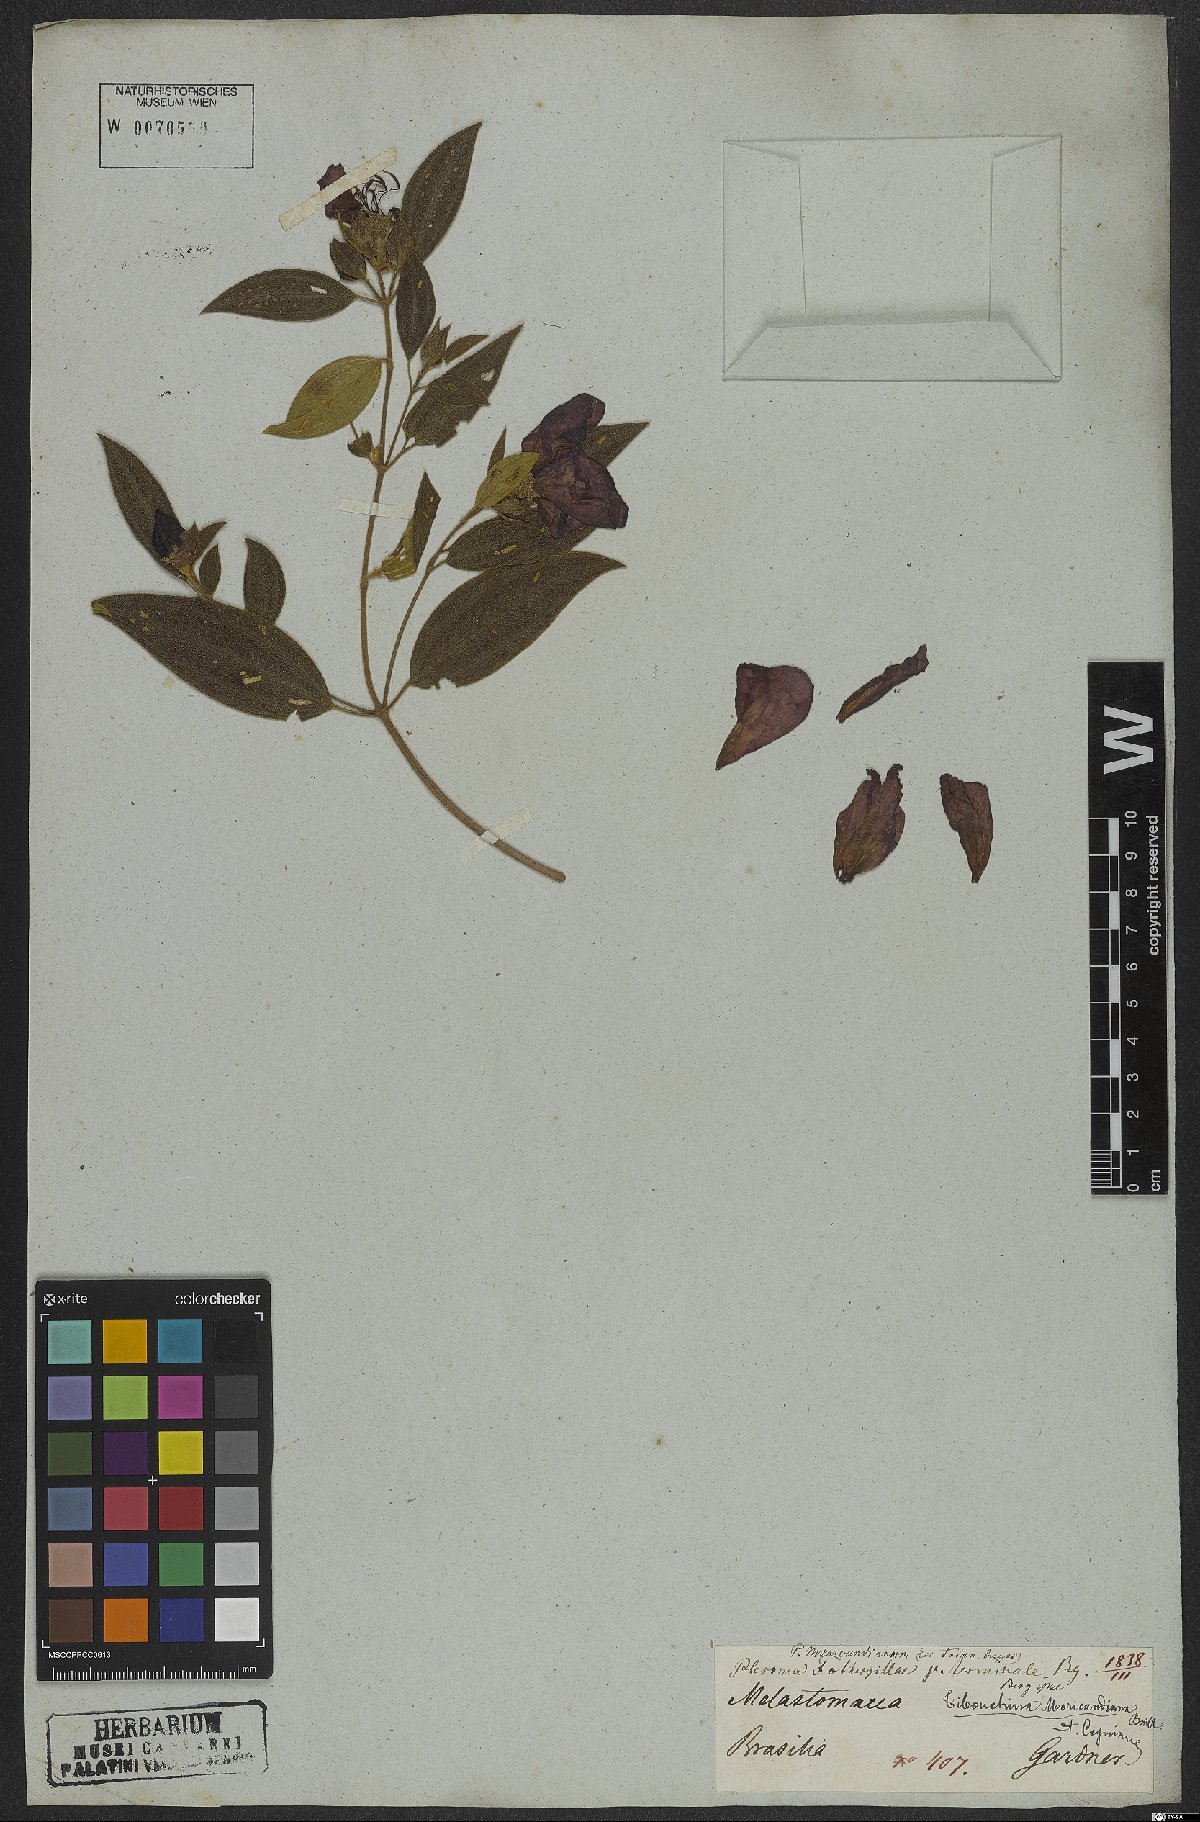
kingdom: Plantae
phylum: Tracheophyta
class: Magnoliopsida
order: Myrtales
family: Melastomataceae
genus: Pleroma
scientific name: Pleroma gaudichaudianum
